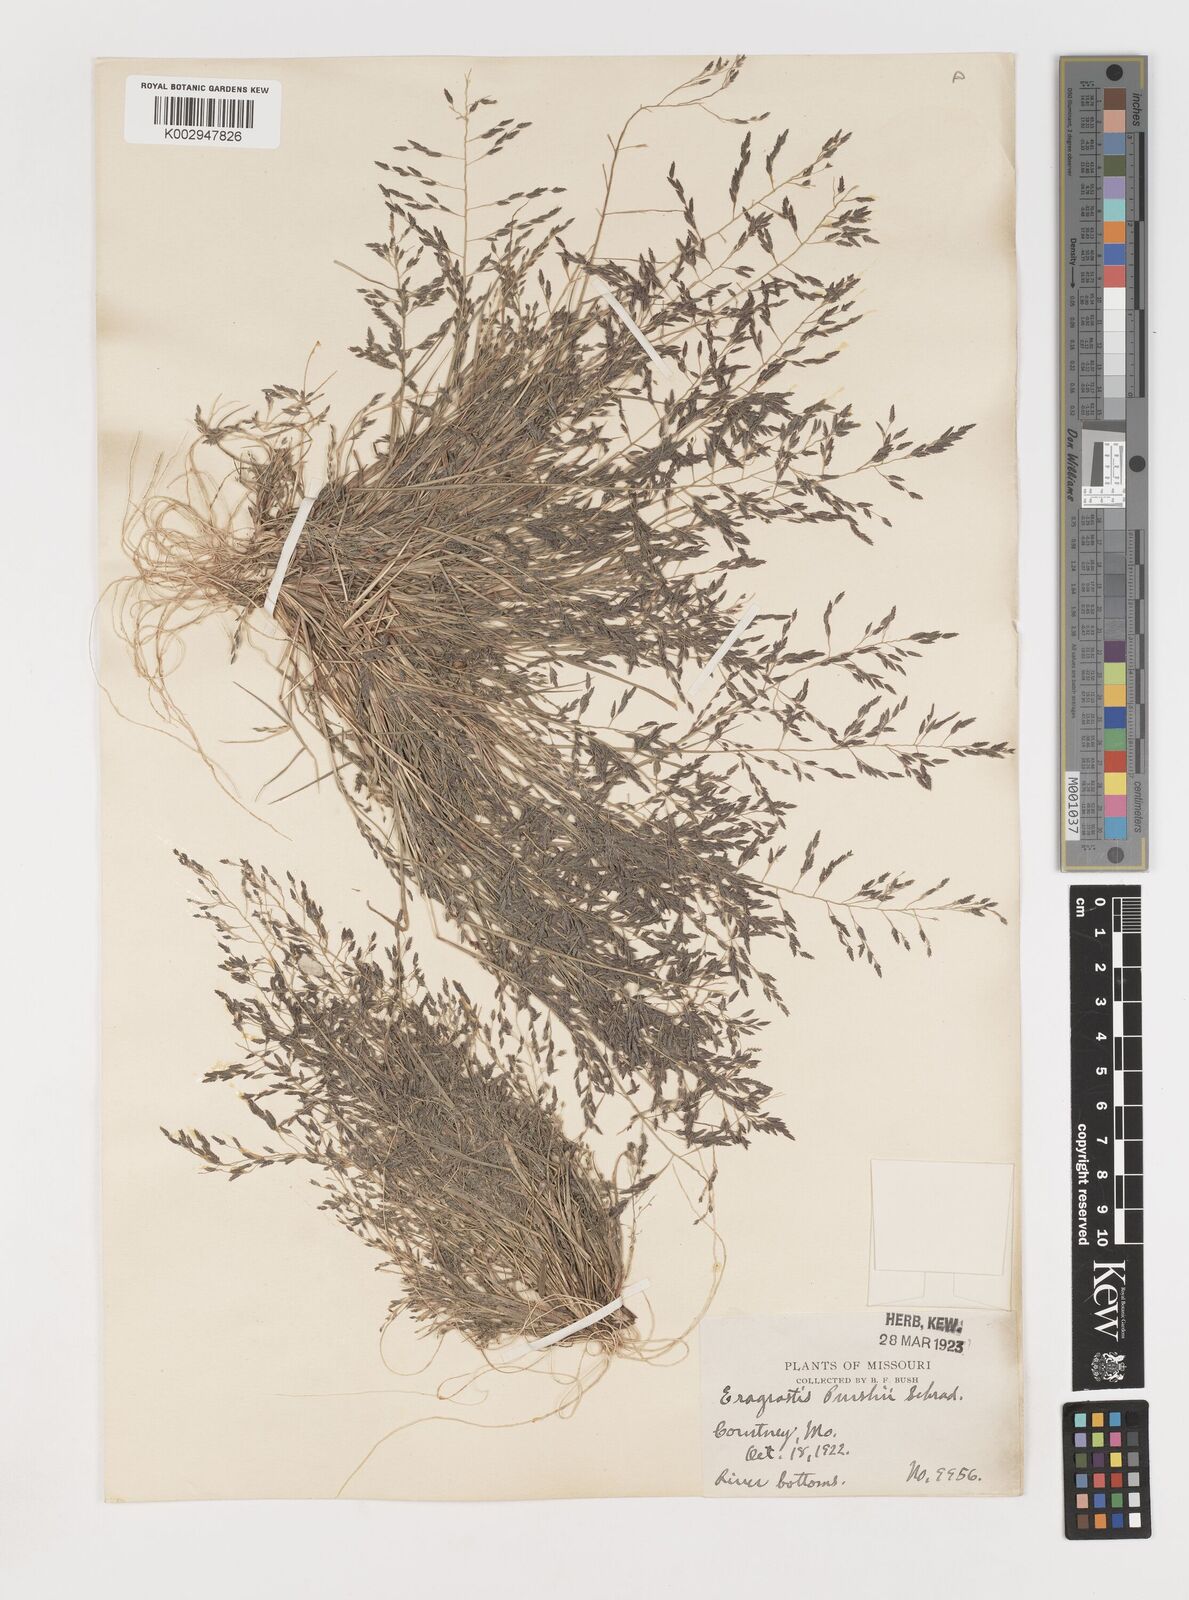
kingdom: Plantae
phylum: Tracheophyta
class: Liliopsida
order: Poales
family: Poaceae
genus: Eragrostis
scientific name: Eragrostis pectinacea
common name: Tufted lovegrass
